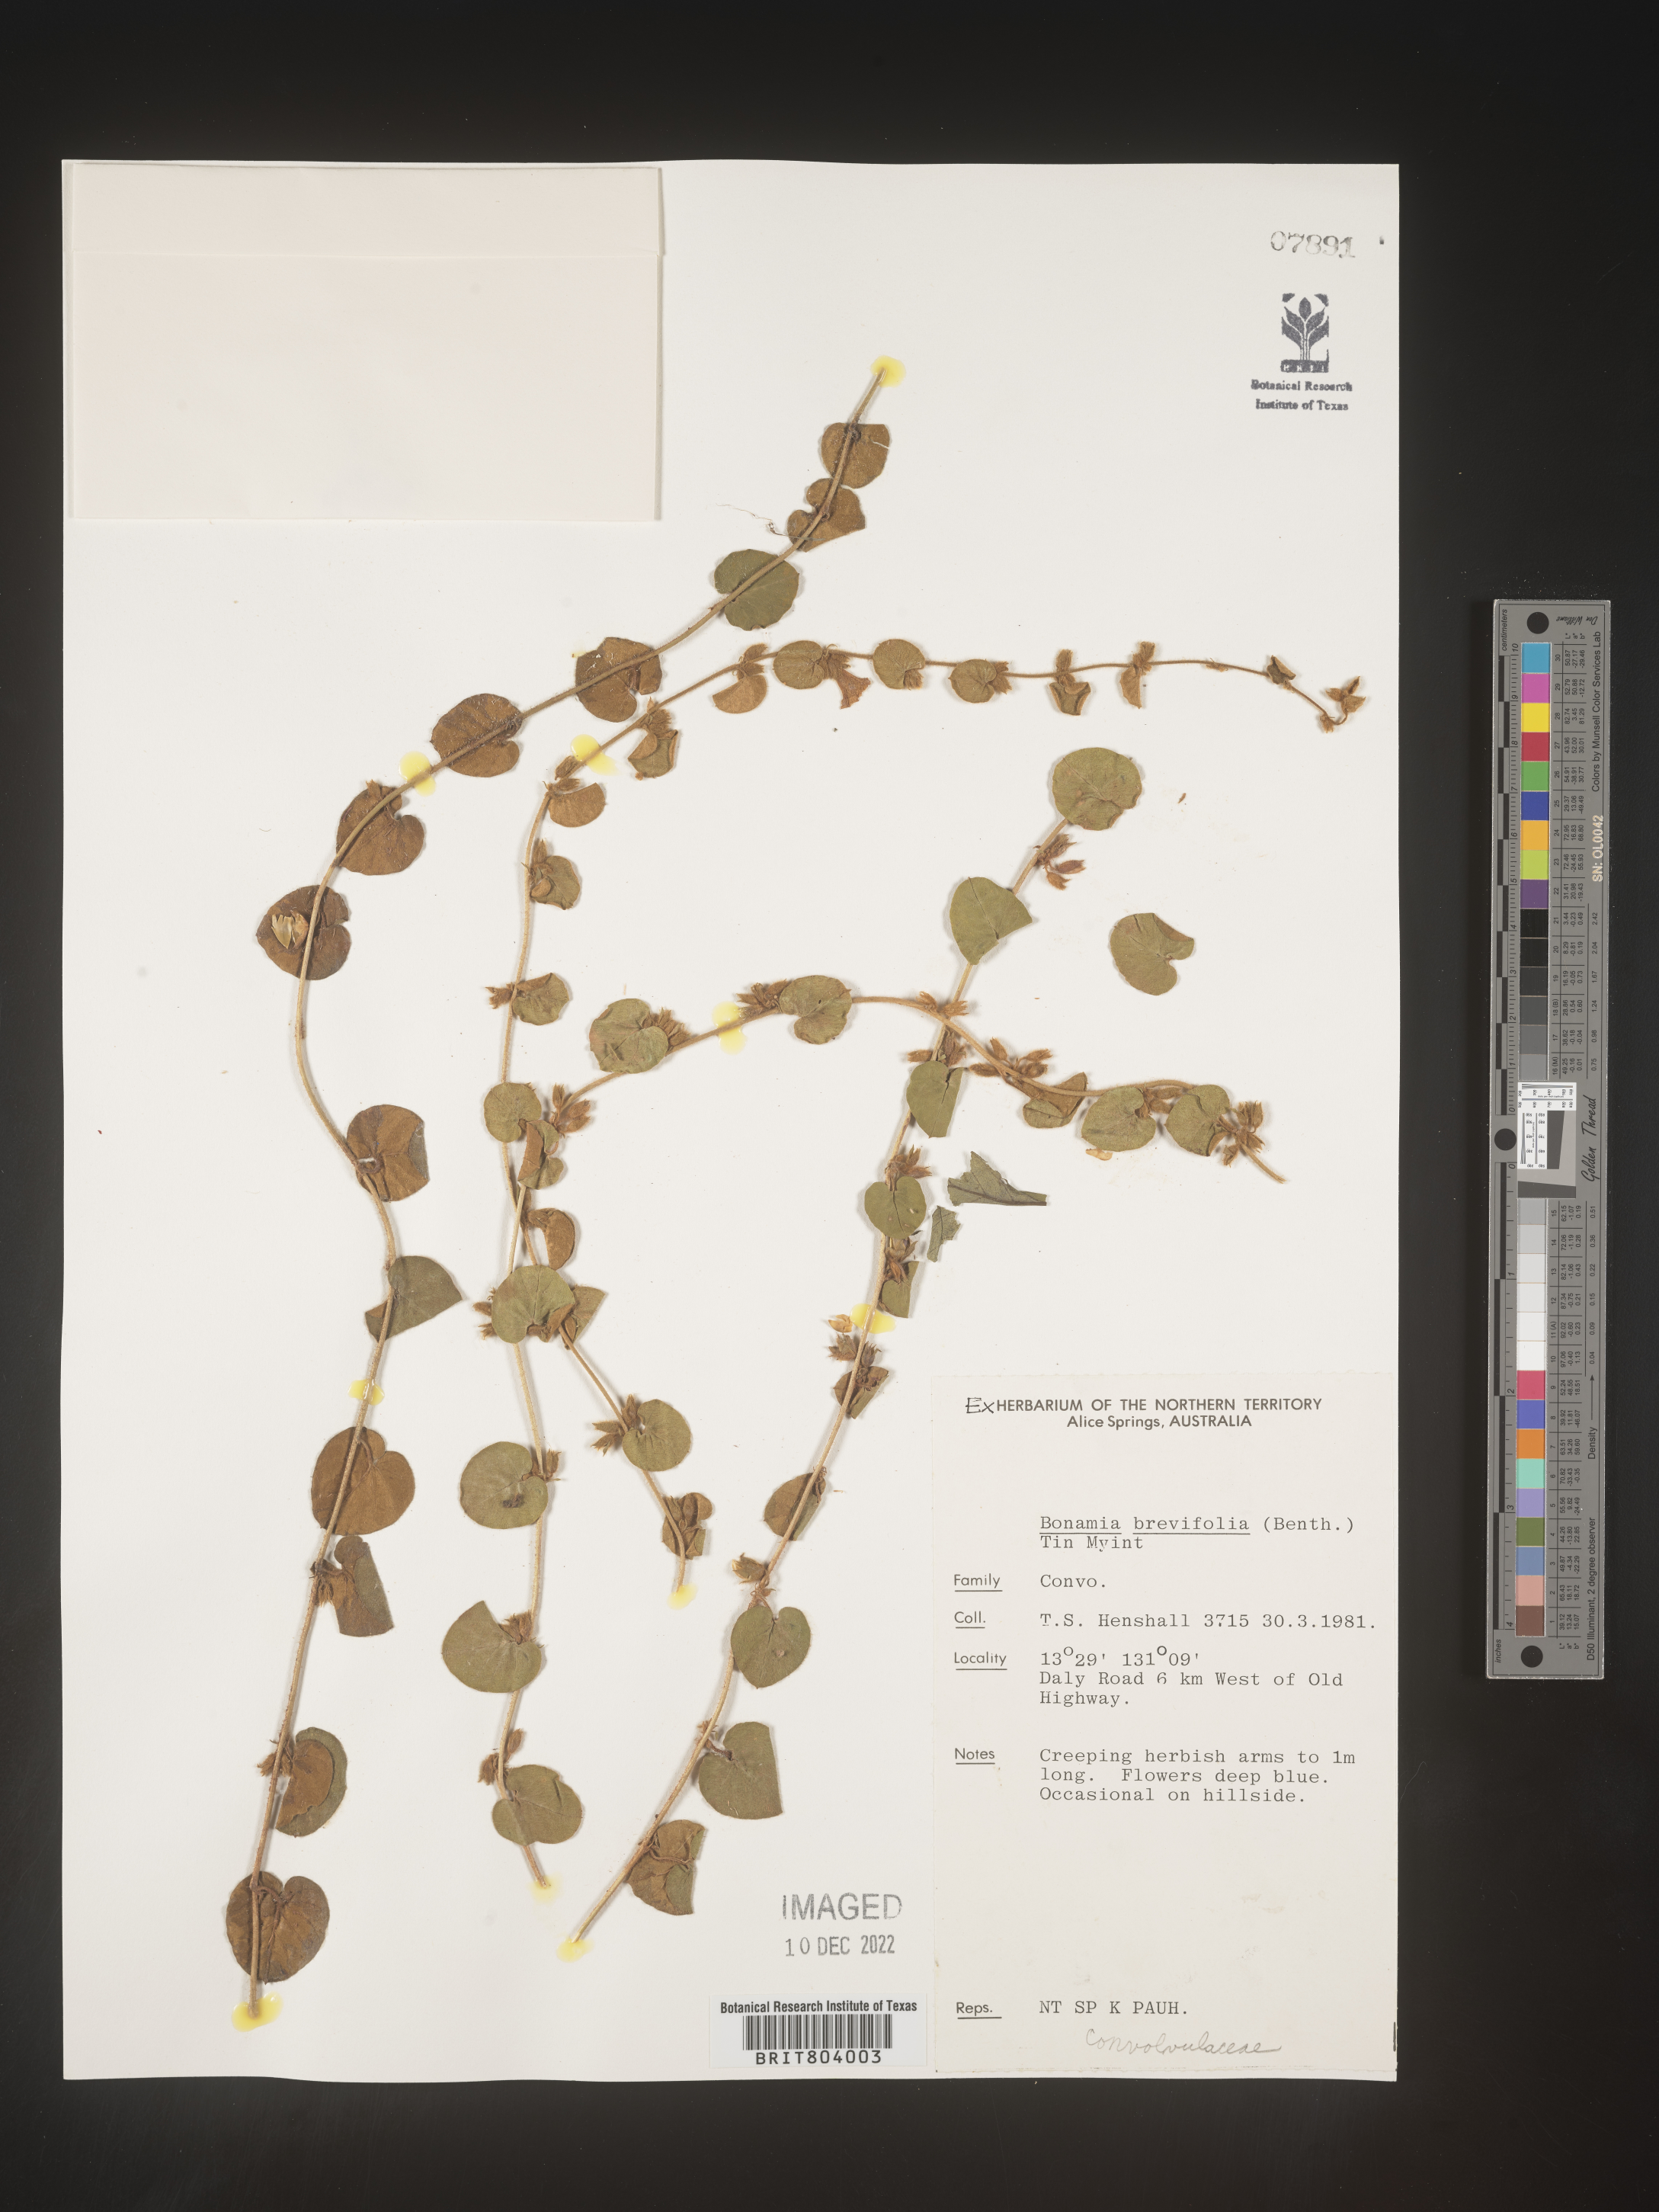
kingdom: Plantae
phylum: Tracheophyta
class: Magnoliopsida
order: Solanales
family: Convolvulaceae
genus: Bonamia
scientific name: Bonamia
